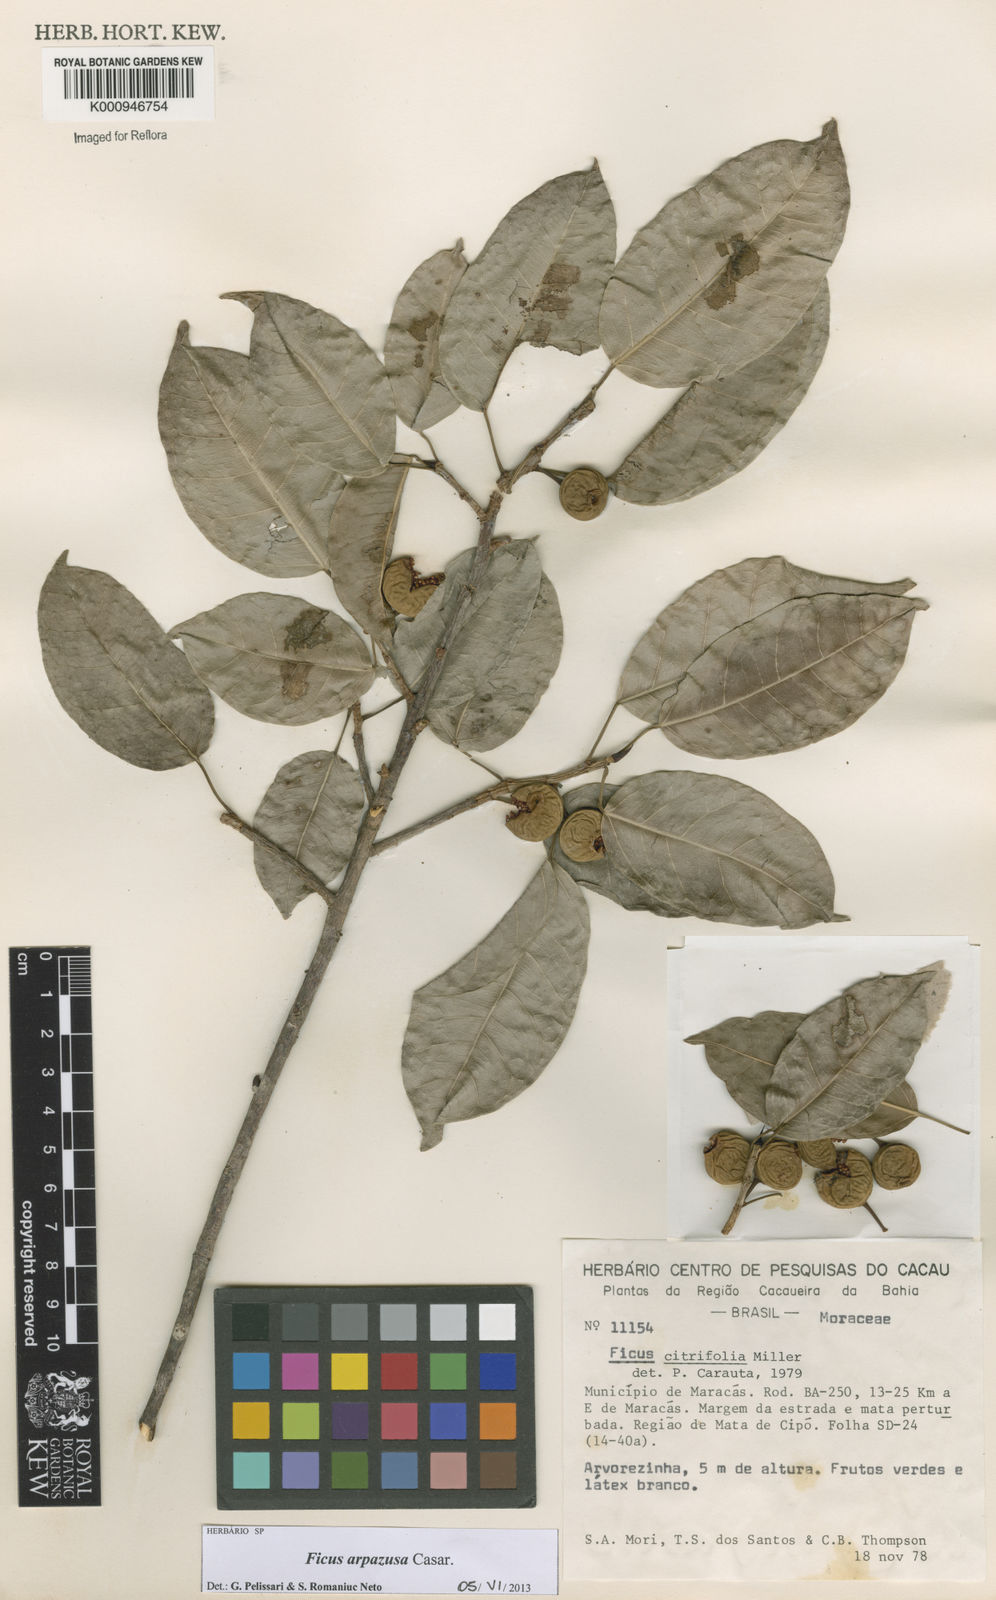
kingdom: Plantae
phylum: Tracheophyta
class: Magnoliopsida
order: Rosales
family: Moraceae
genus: Ficus
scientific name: Ficus arpazusa
